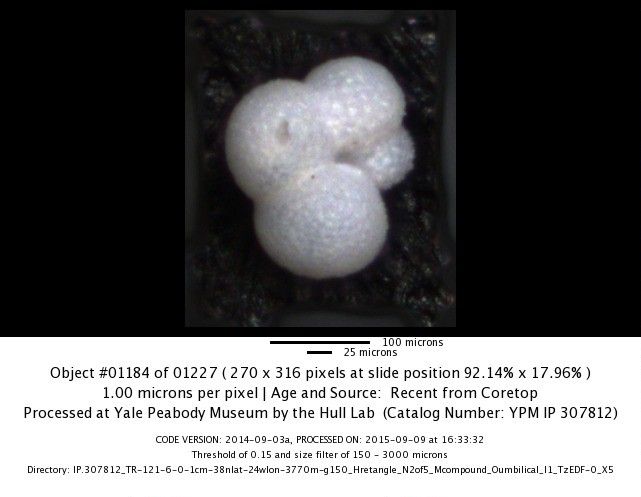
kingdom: Chromista
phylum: Foraminifera
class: Globothalamea
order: Rotaliida
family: Globorotaliidae
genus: Neogloboquadrina
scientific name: Neogloboquadrina incompta
